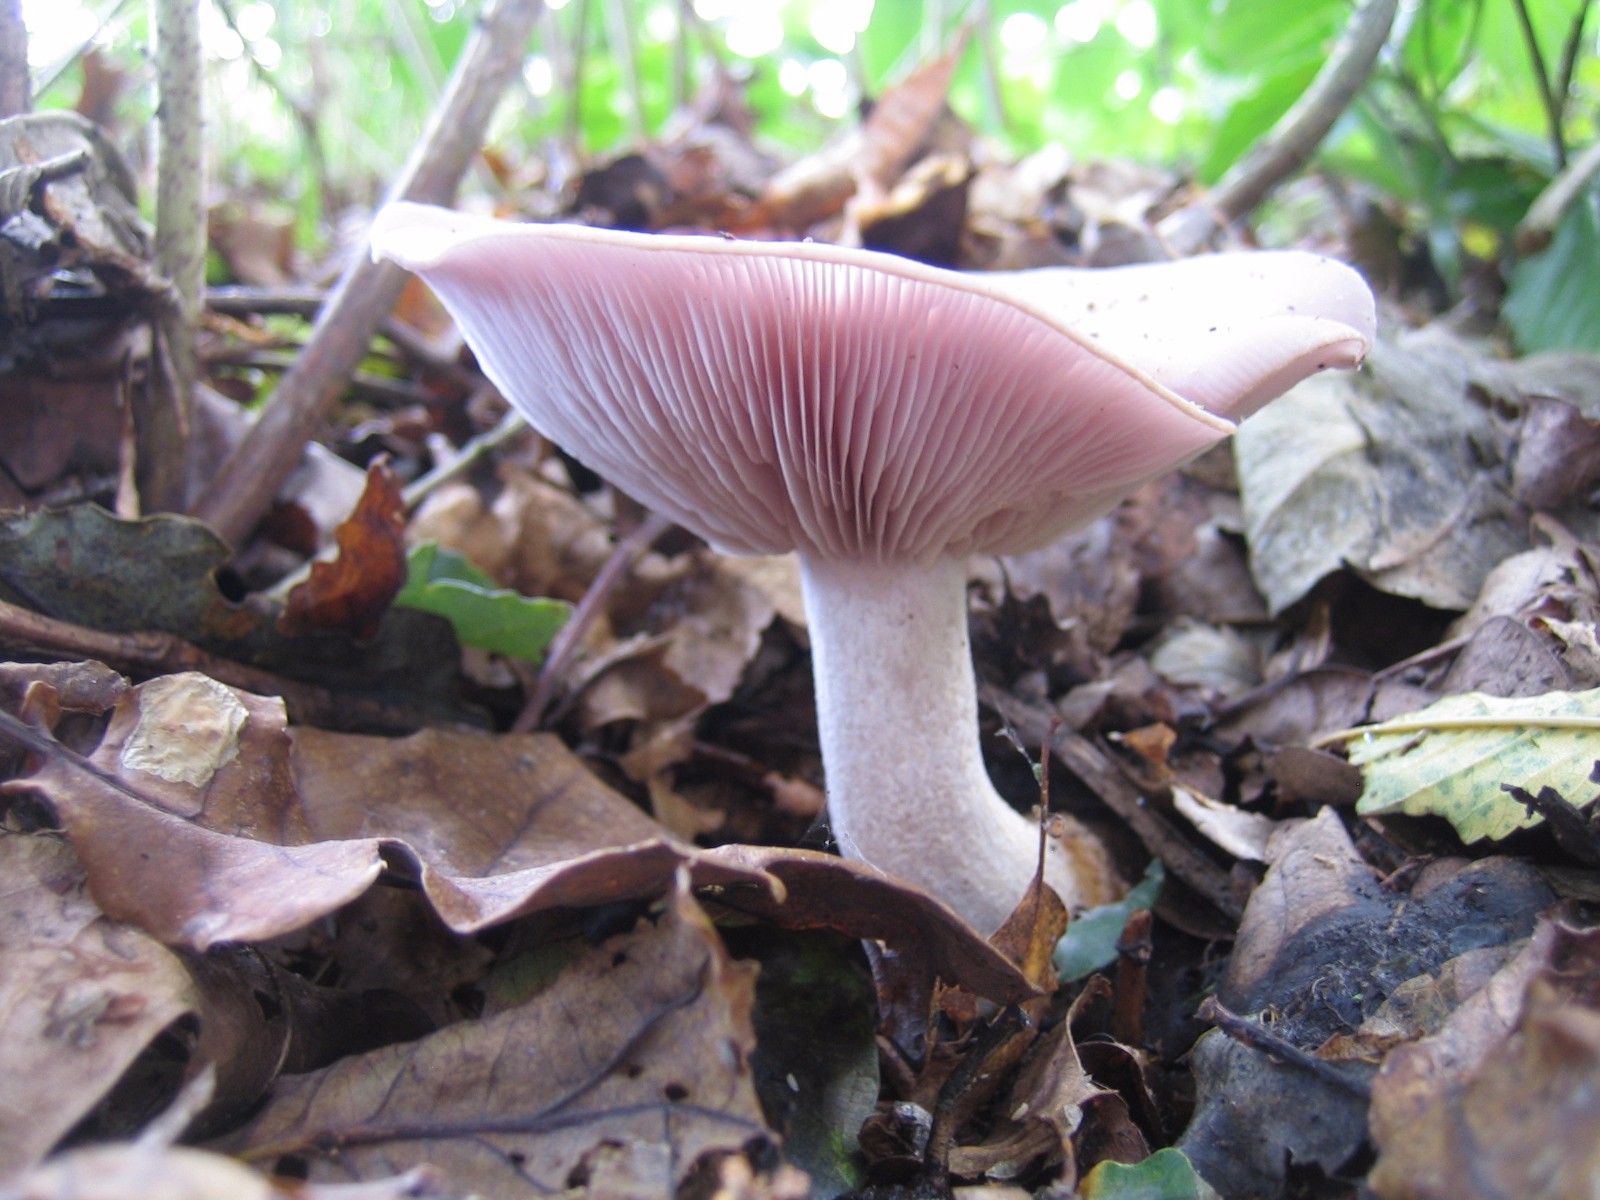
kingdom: Fungi
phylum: Basidiomycota
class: Agaricomycetes
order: Agaricales
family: Tricholomataceae
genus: Lepista
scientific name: Lepista nuda
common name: violet hekseringshat
